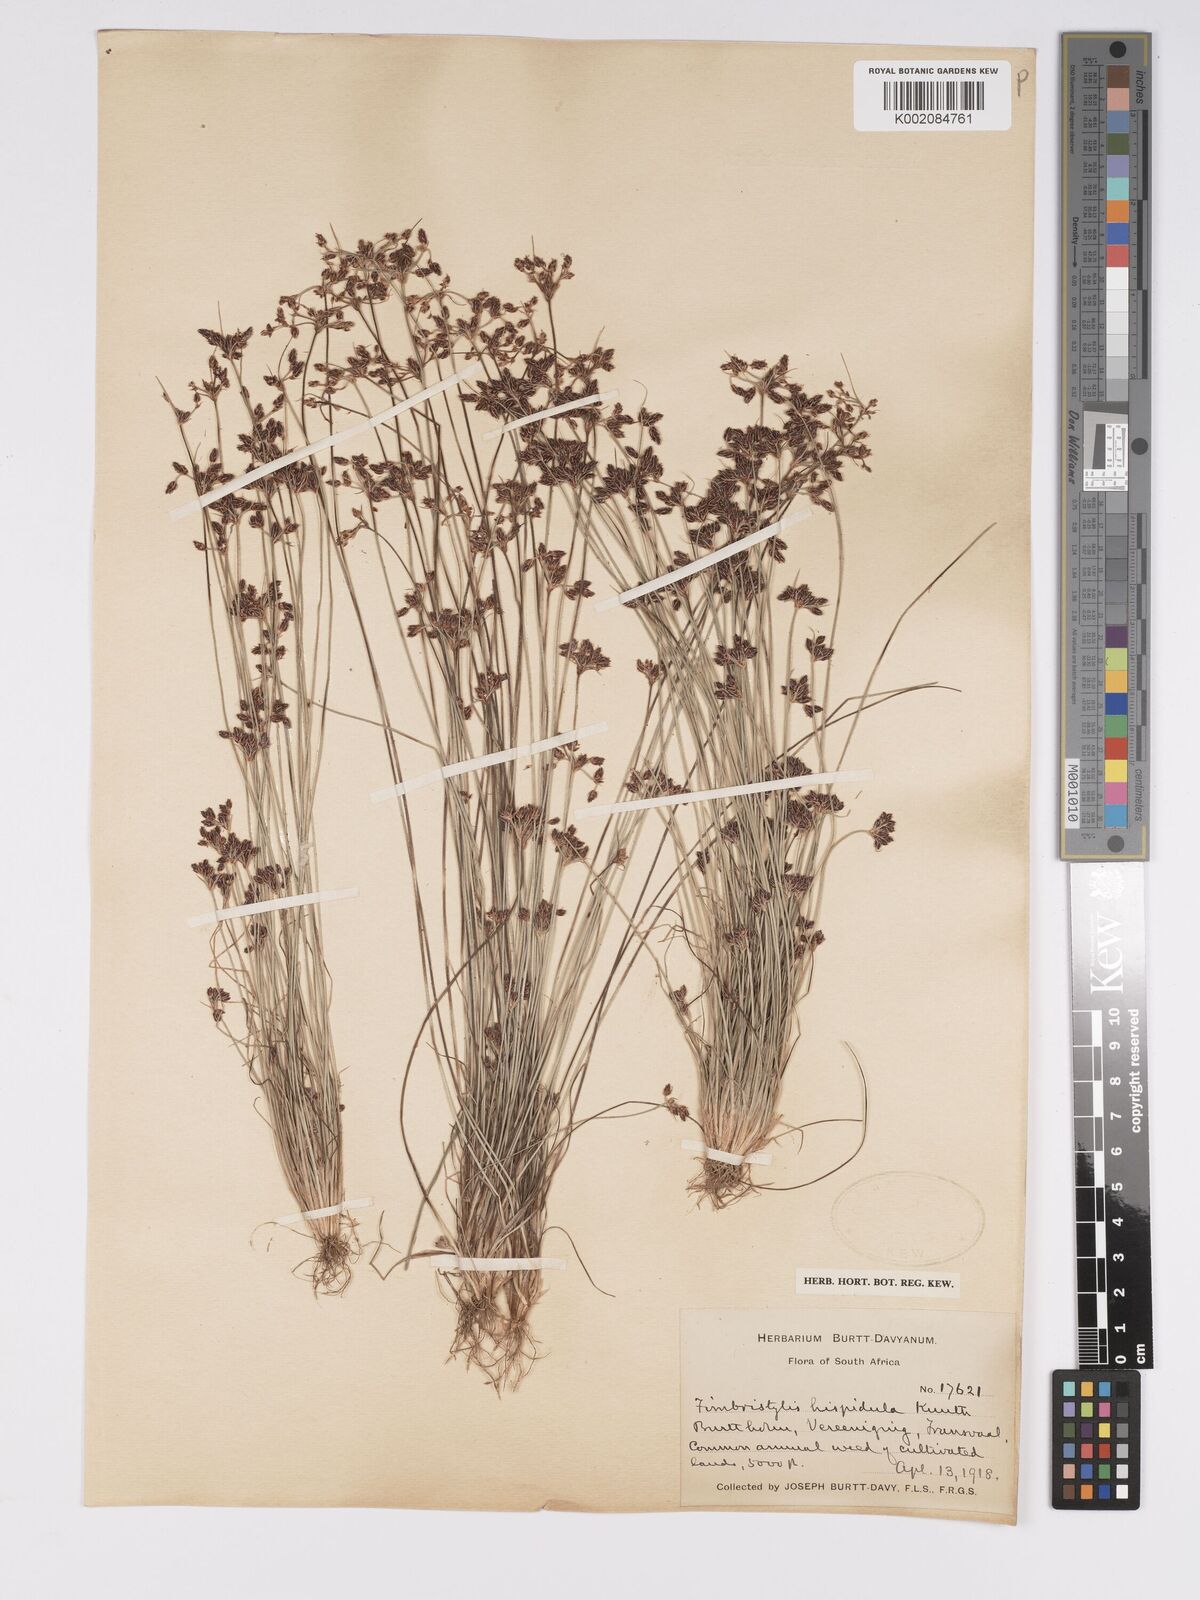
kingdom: Plantae
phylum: Tracheophyta
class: Liliopsida
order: Poales
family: Cyperaceae
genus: Bulbostylis
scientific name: Bulbostylis
